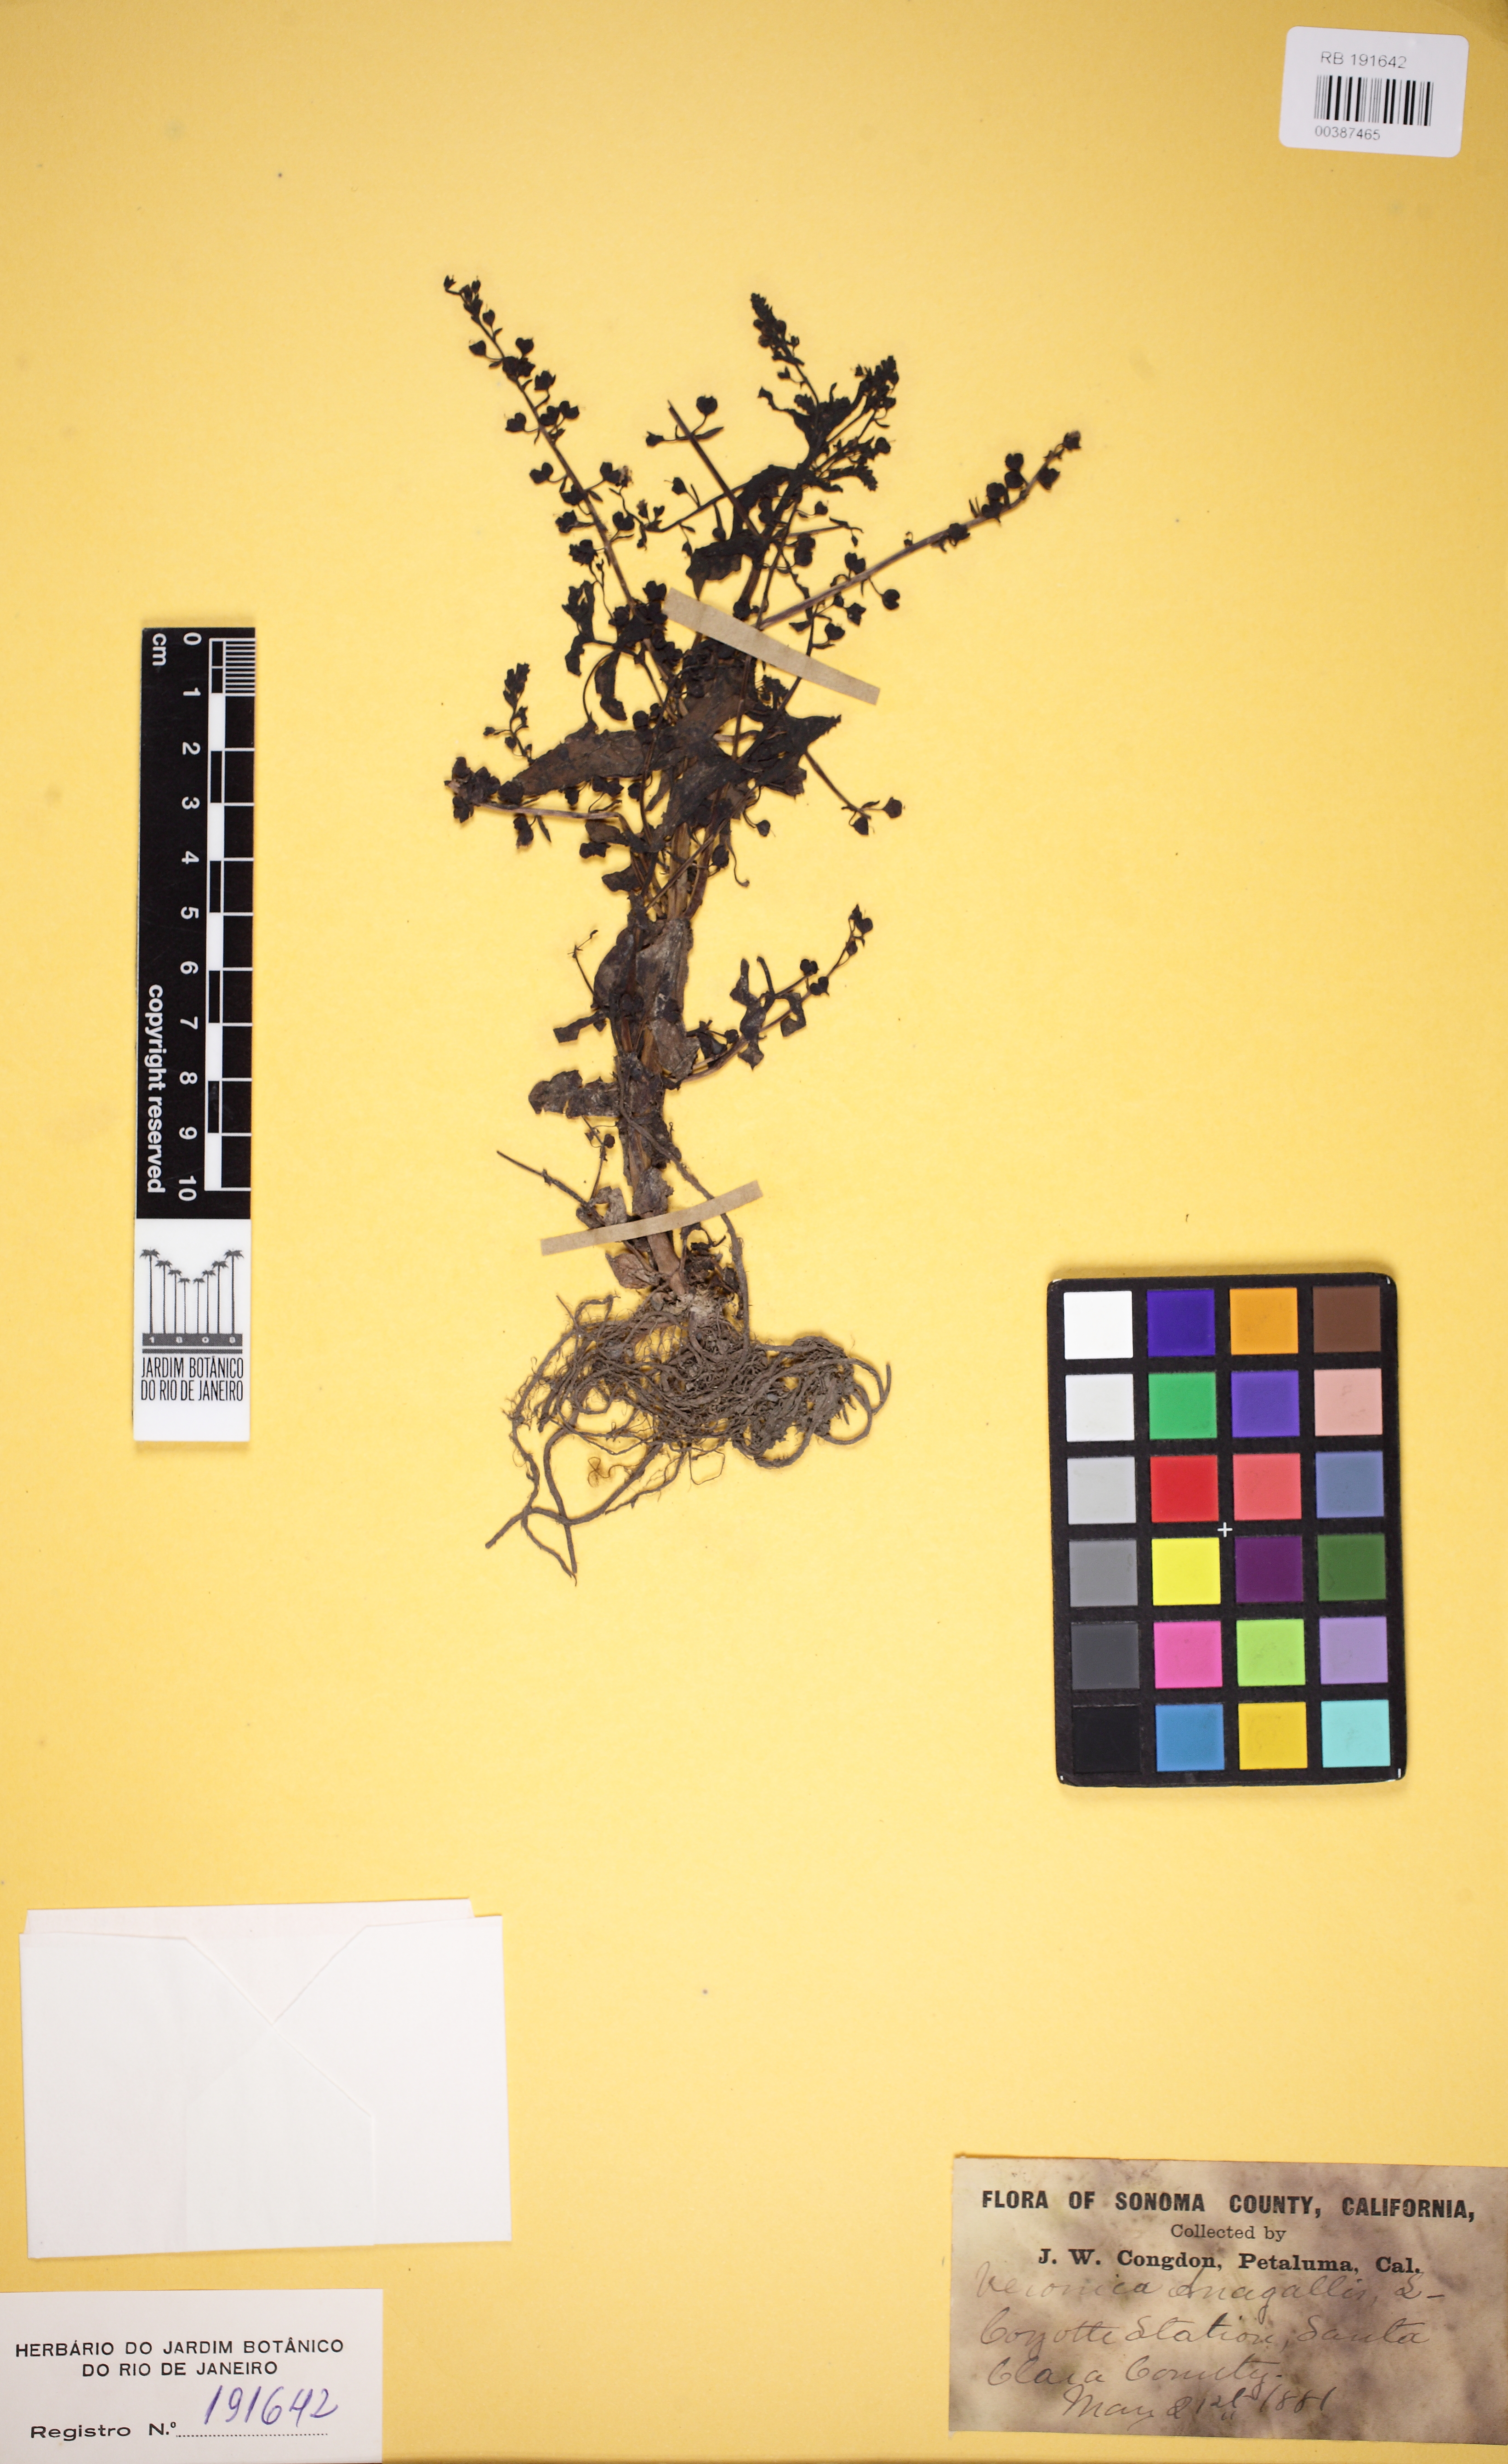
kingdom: Plantae
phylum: Tracheophyta
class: Magnoliopsida
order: Lamiales
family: Scrophulariaceae
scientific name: Scrophulariaceae
